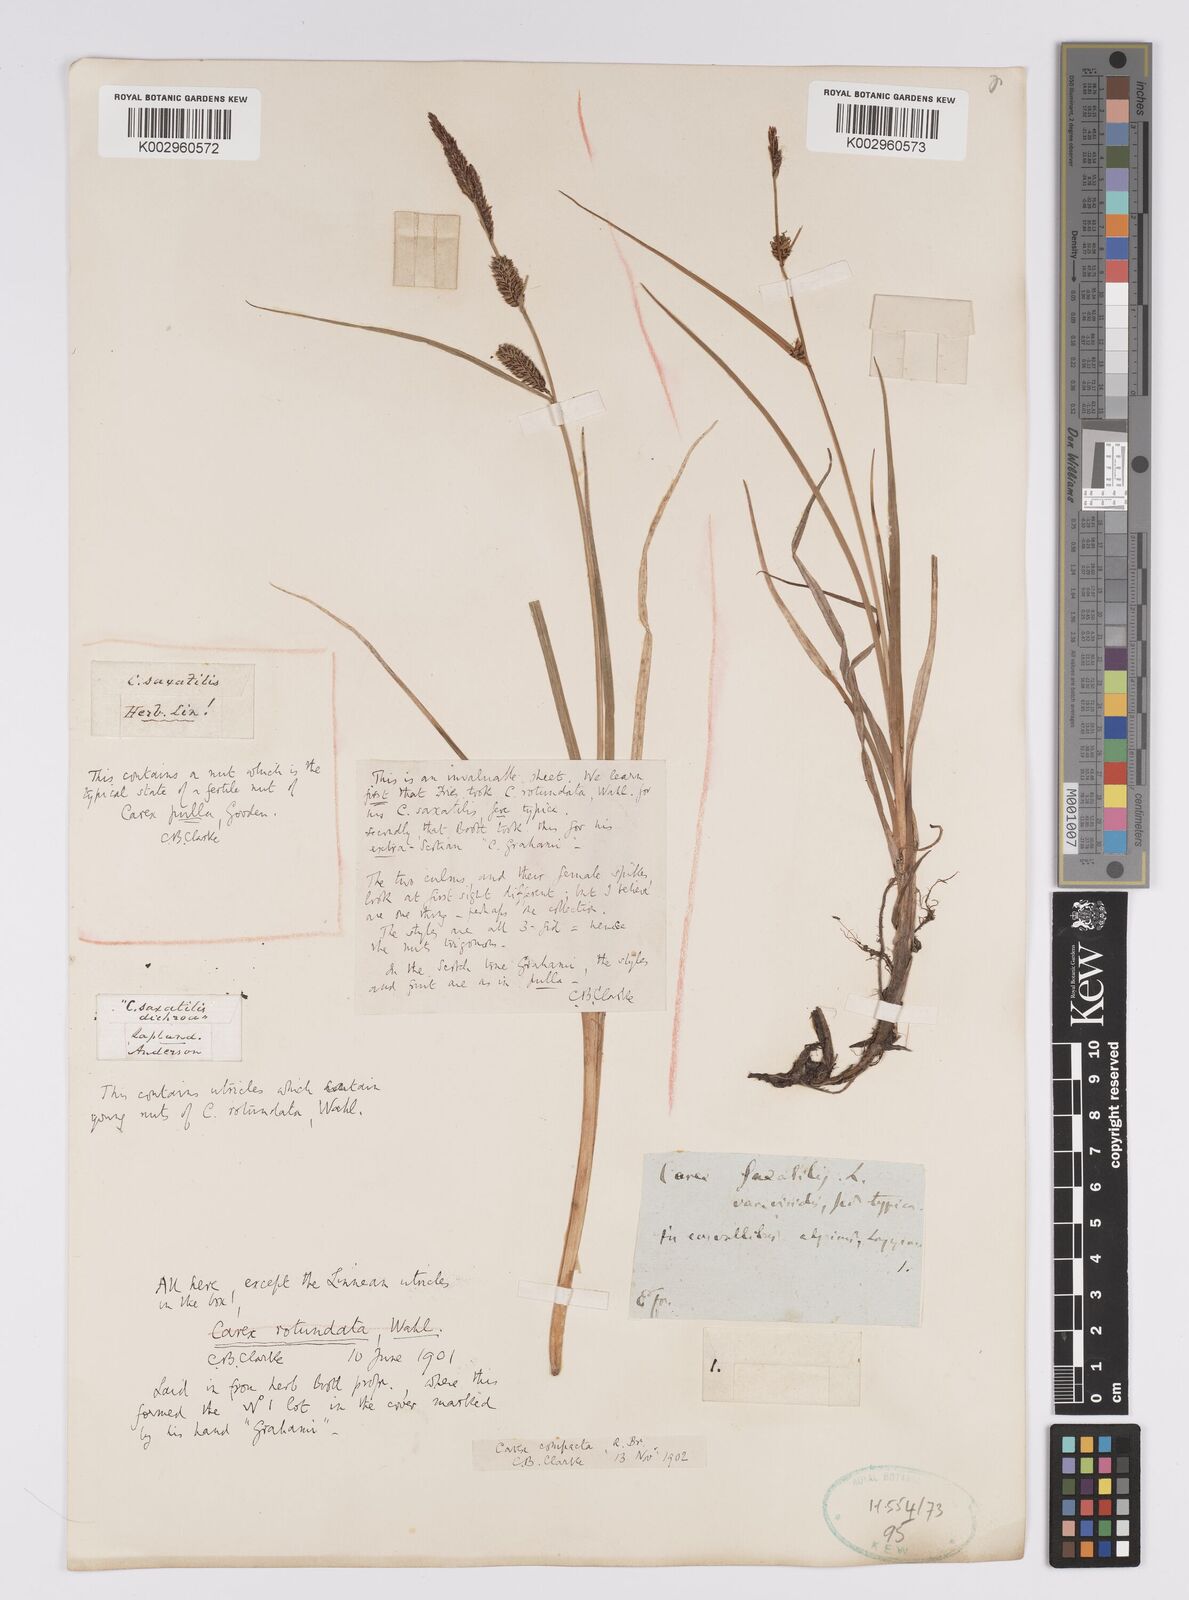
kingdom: Plantae
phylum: Tracheophyta
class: Liliopsida
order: Poales
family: Cyperaceae
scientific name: Cyperaceae
